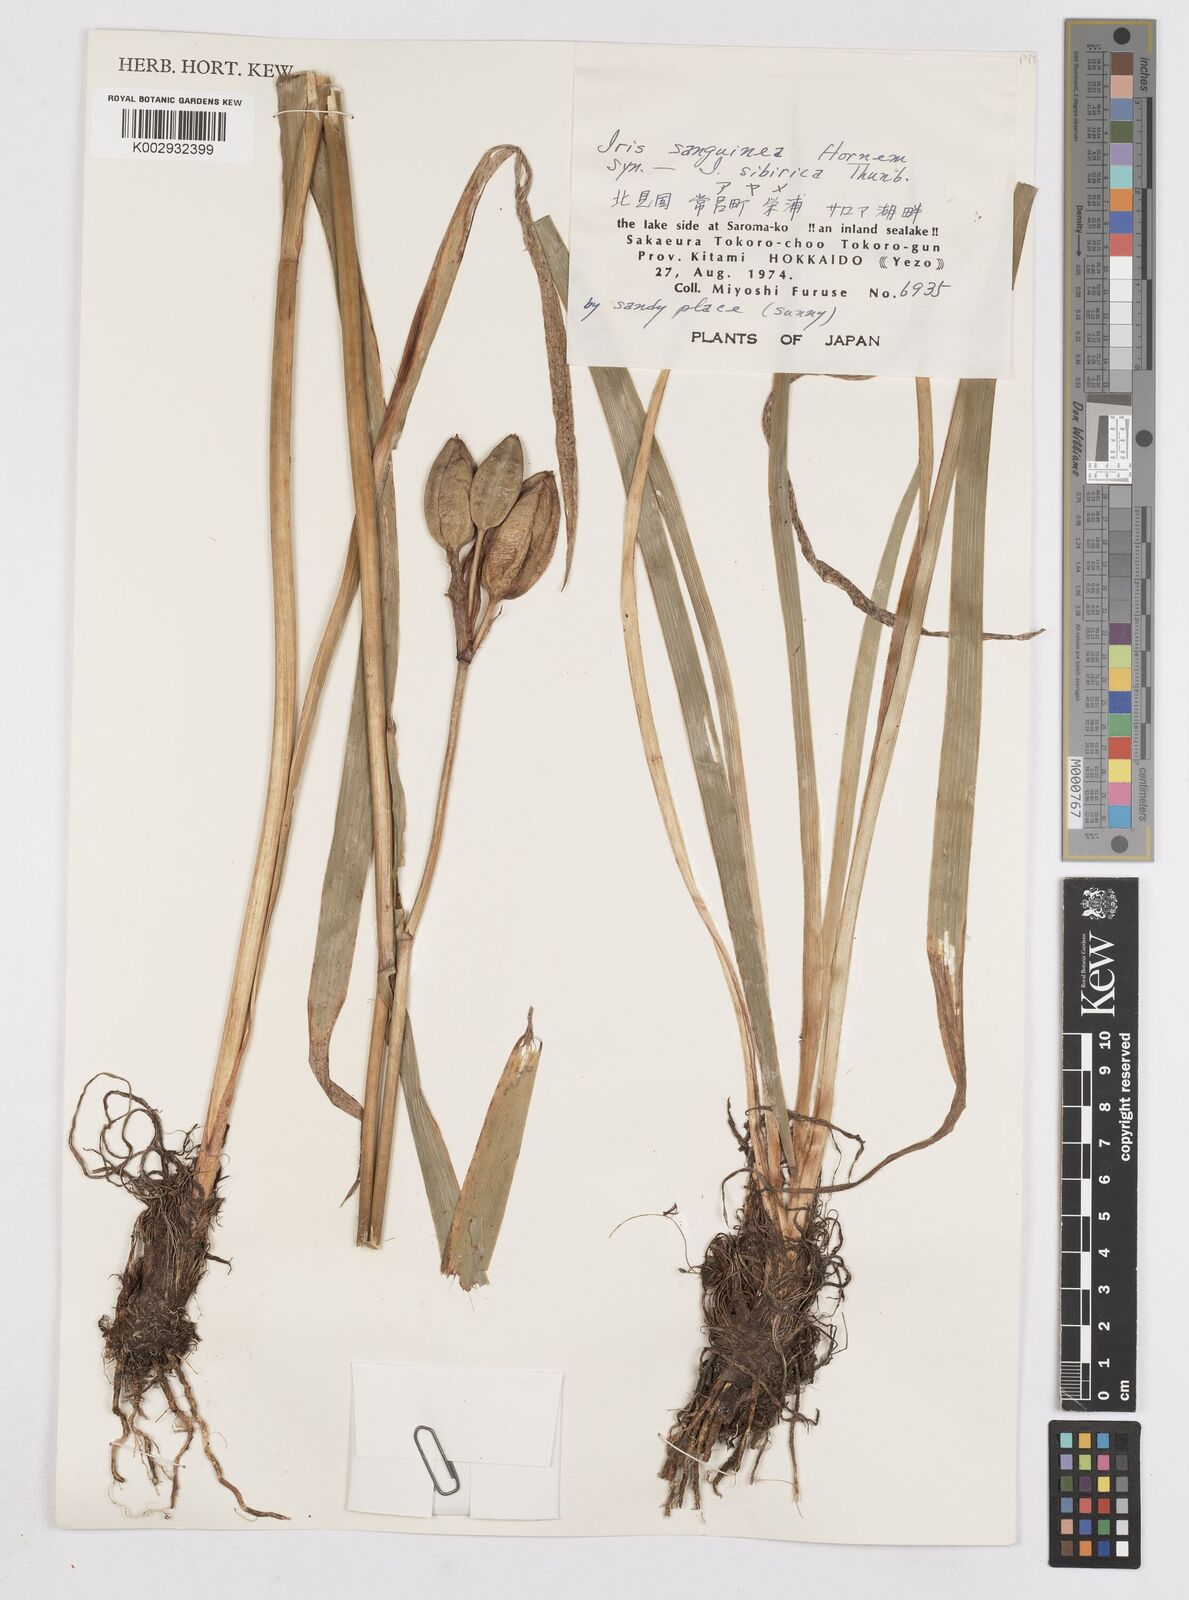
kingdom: Plantae
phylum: Tracheophyta
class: Liliopsida
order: Asparagales
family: Iridaceae
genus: Iris
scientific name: Iris sibirica
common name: Siberian iris
